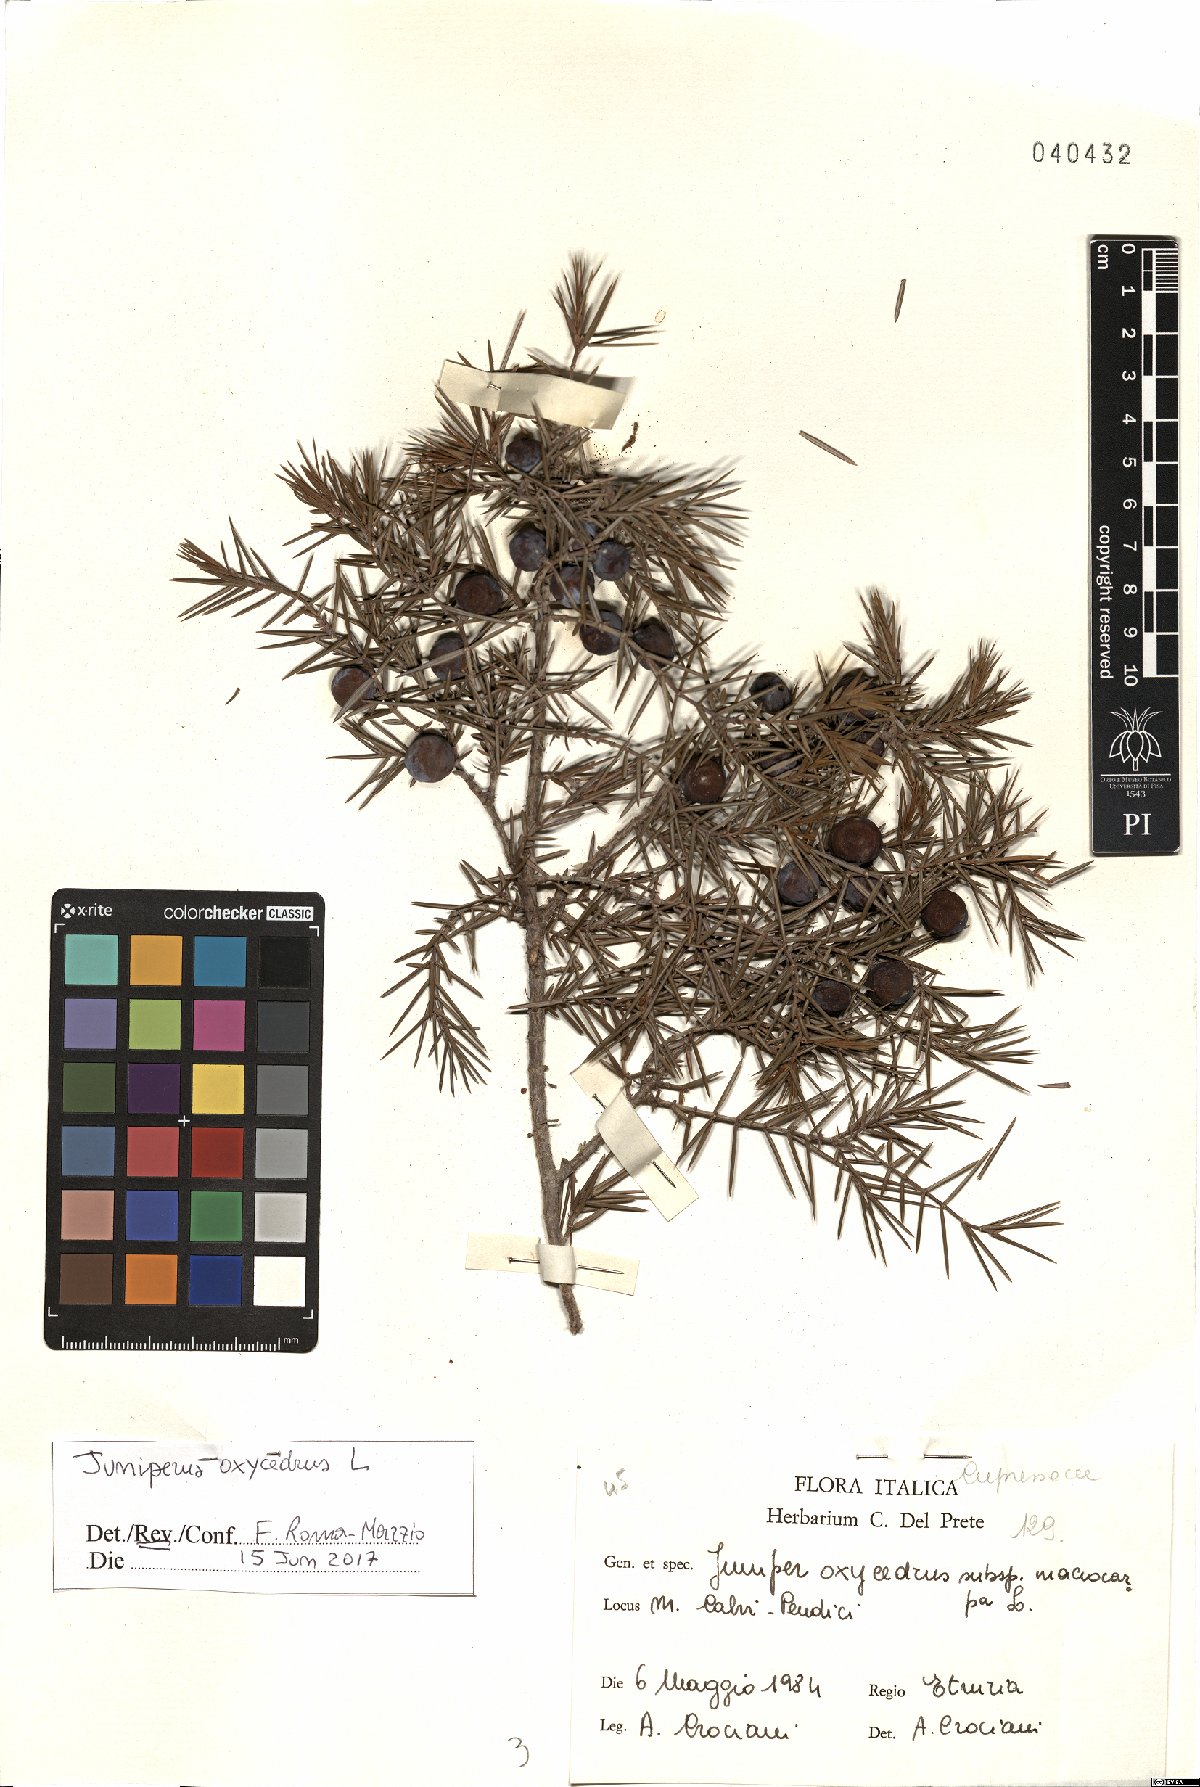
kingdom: Plantae
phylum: Tracheophyta
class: Pinopsida
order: Pinales
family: Cupressaceae
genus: Juniperus
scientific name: Juniperus oxycedrus
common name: Prickly juniper
